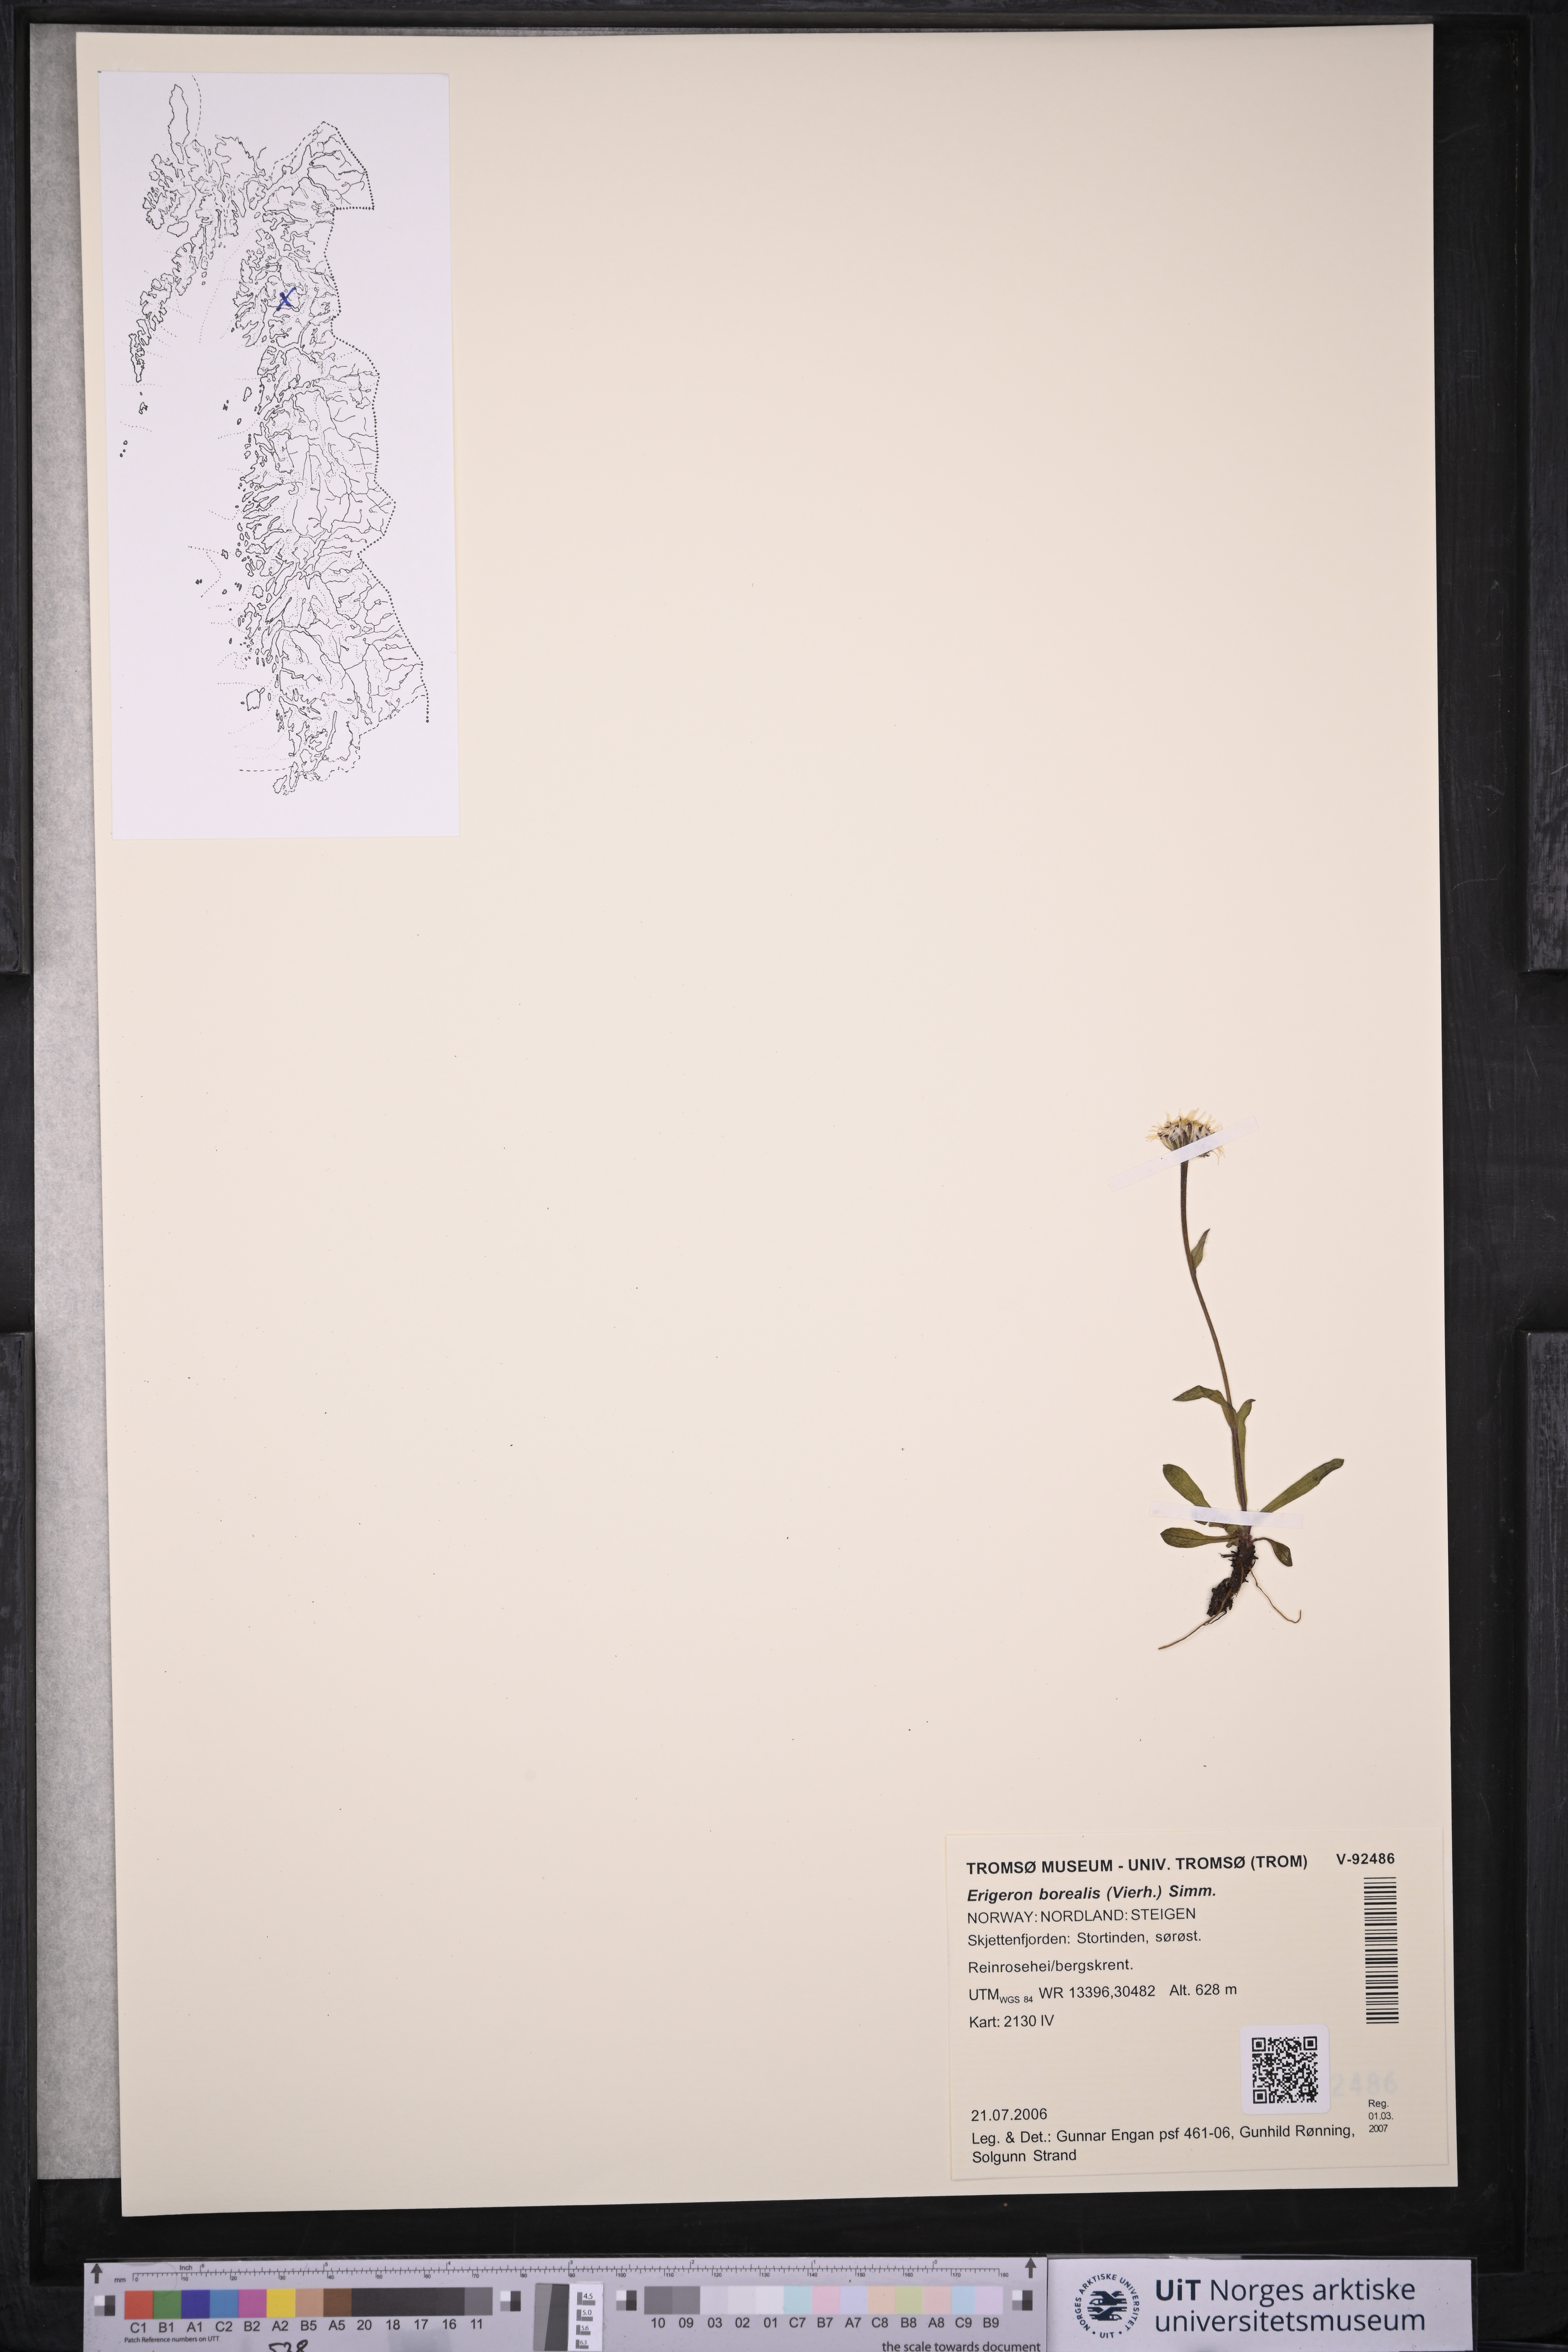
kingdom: Plantae
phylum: Tracheophyta
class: Magnoliopsida
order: Asterales
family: Asteraceae
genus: Erigeron
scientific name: Erigeron borealis
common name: Alpine fleabane
